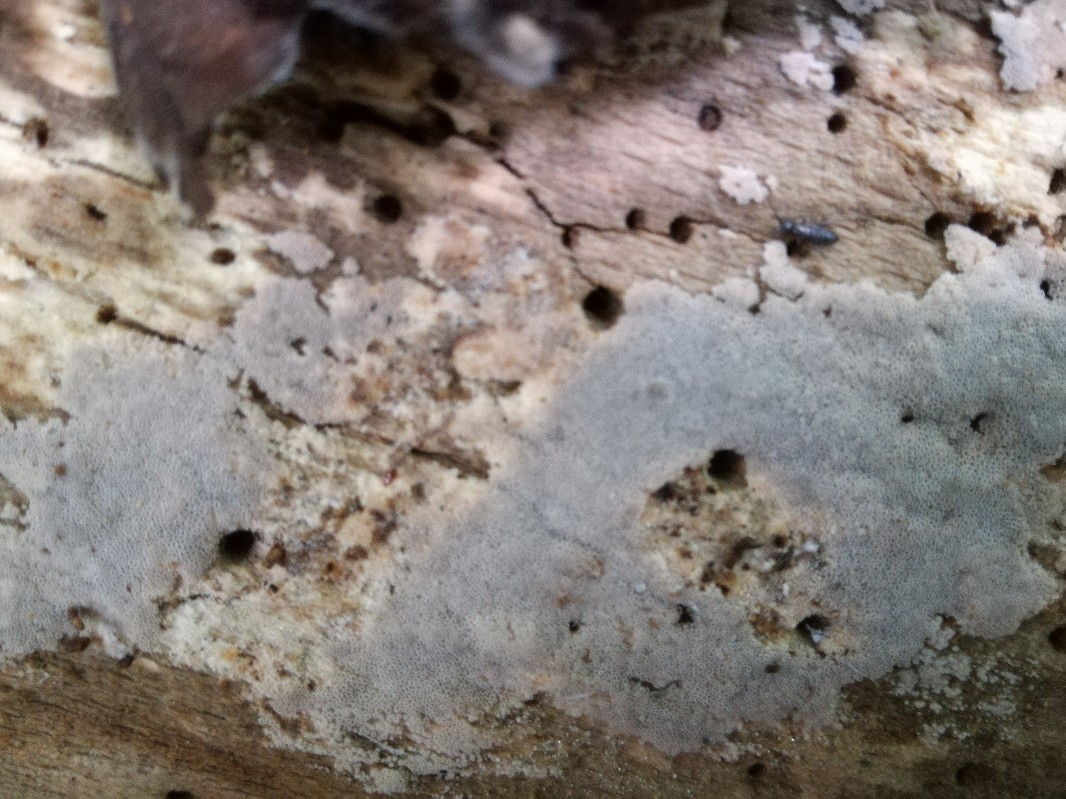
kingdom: Fungi
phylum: Basidiomycota
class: Agaricomycetes
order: Polyporales
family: Irpicaceae
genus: Ceriporia
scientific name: Ceriporia excelsa
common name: lilla voksporesvamp
